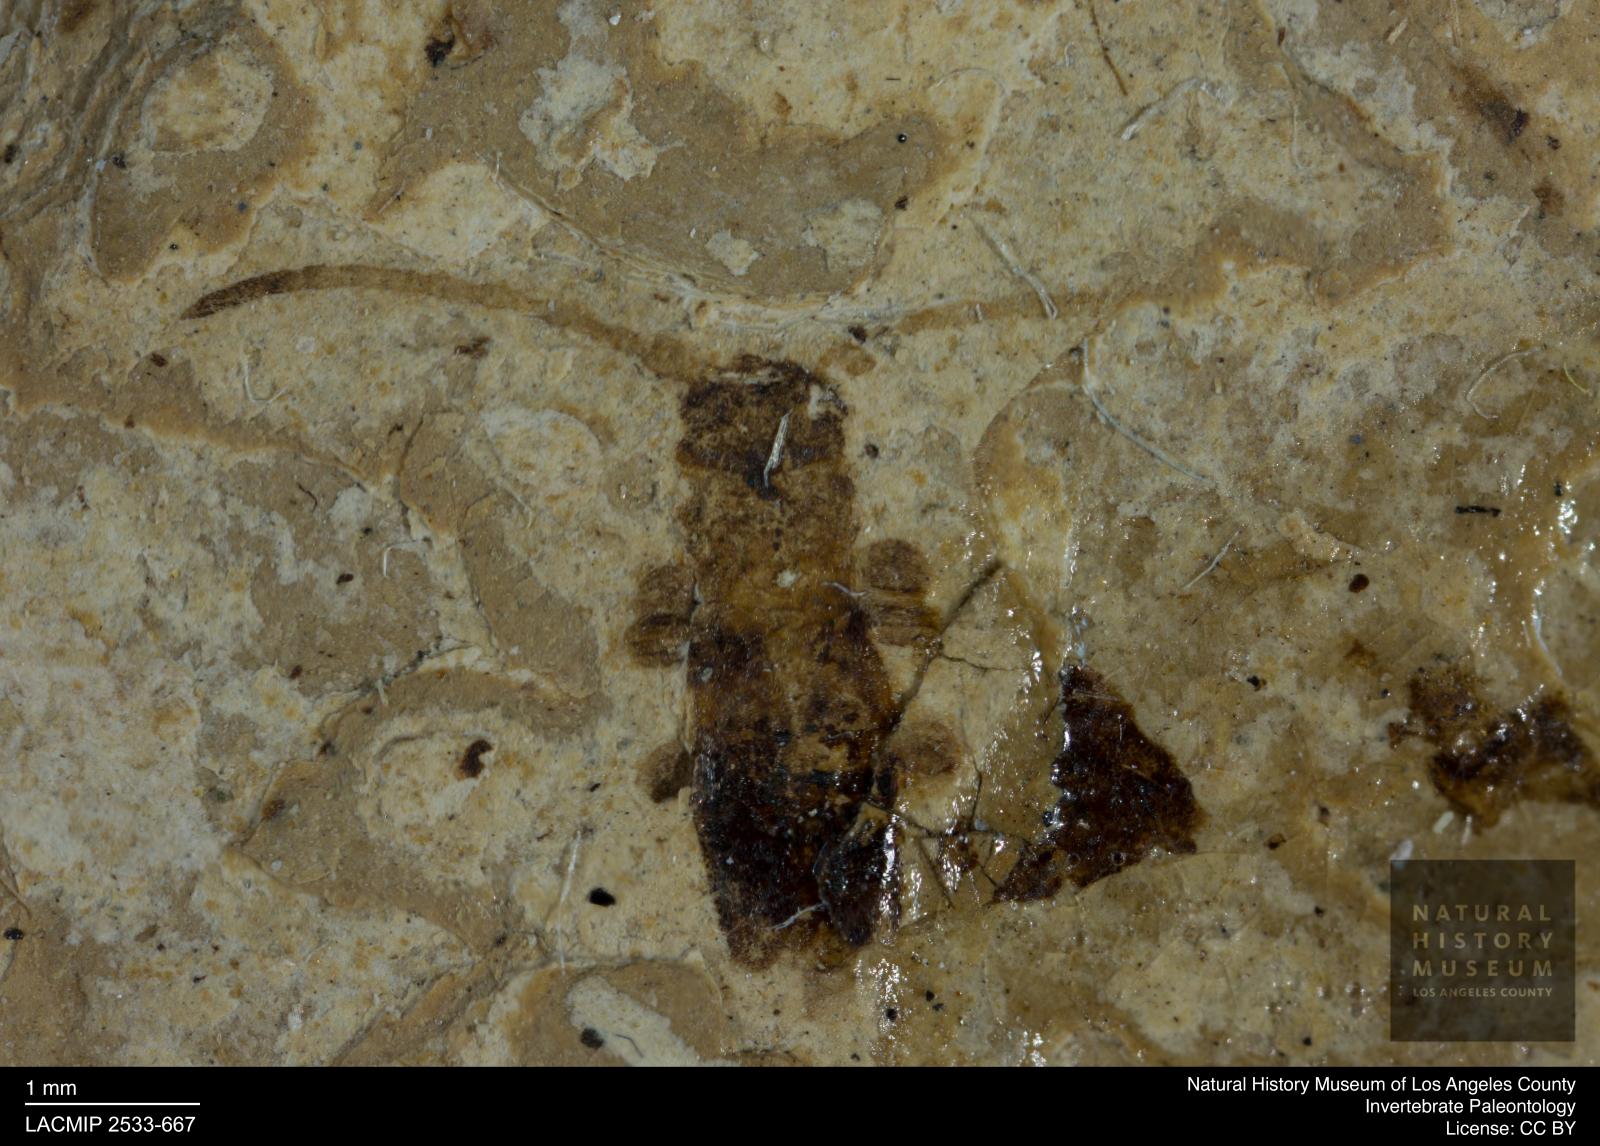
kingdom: Animalia
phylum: Arthropoda
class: Insecta
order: Coleoptera
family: Cerambycidae
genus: Tetrops
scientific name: Tetrops rottensis
